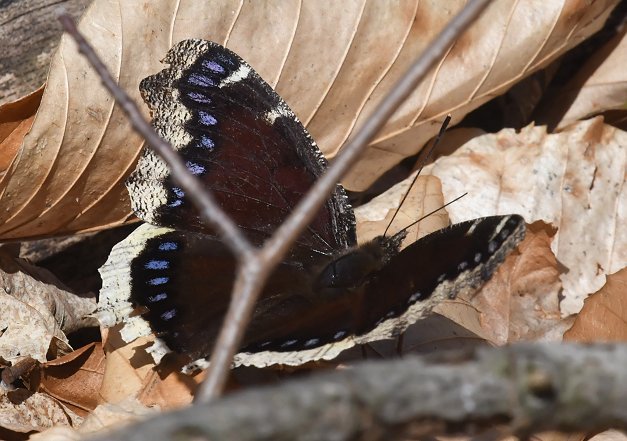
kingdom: Animalia
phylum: Arthropoda
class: Insecta
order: Lepidoptera
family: Nymphalidae
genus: Nymphalis
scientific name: Nymphalis antiopa
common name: Mourning Cloak
